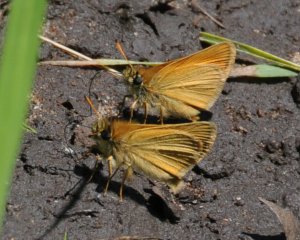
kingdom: Animalia
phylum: Arthropoda
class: Insecta
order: Lepidoptera
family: Hesperiidae
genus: Thymelicus
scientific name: Thymelicus lineola
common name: European Skipper
